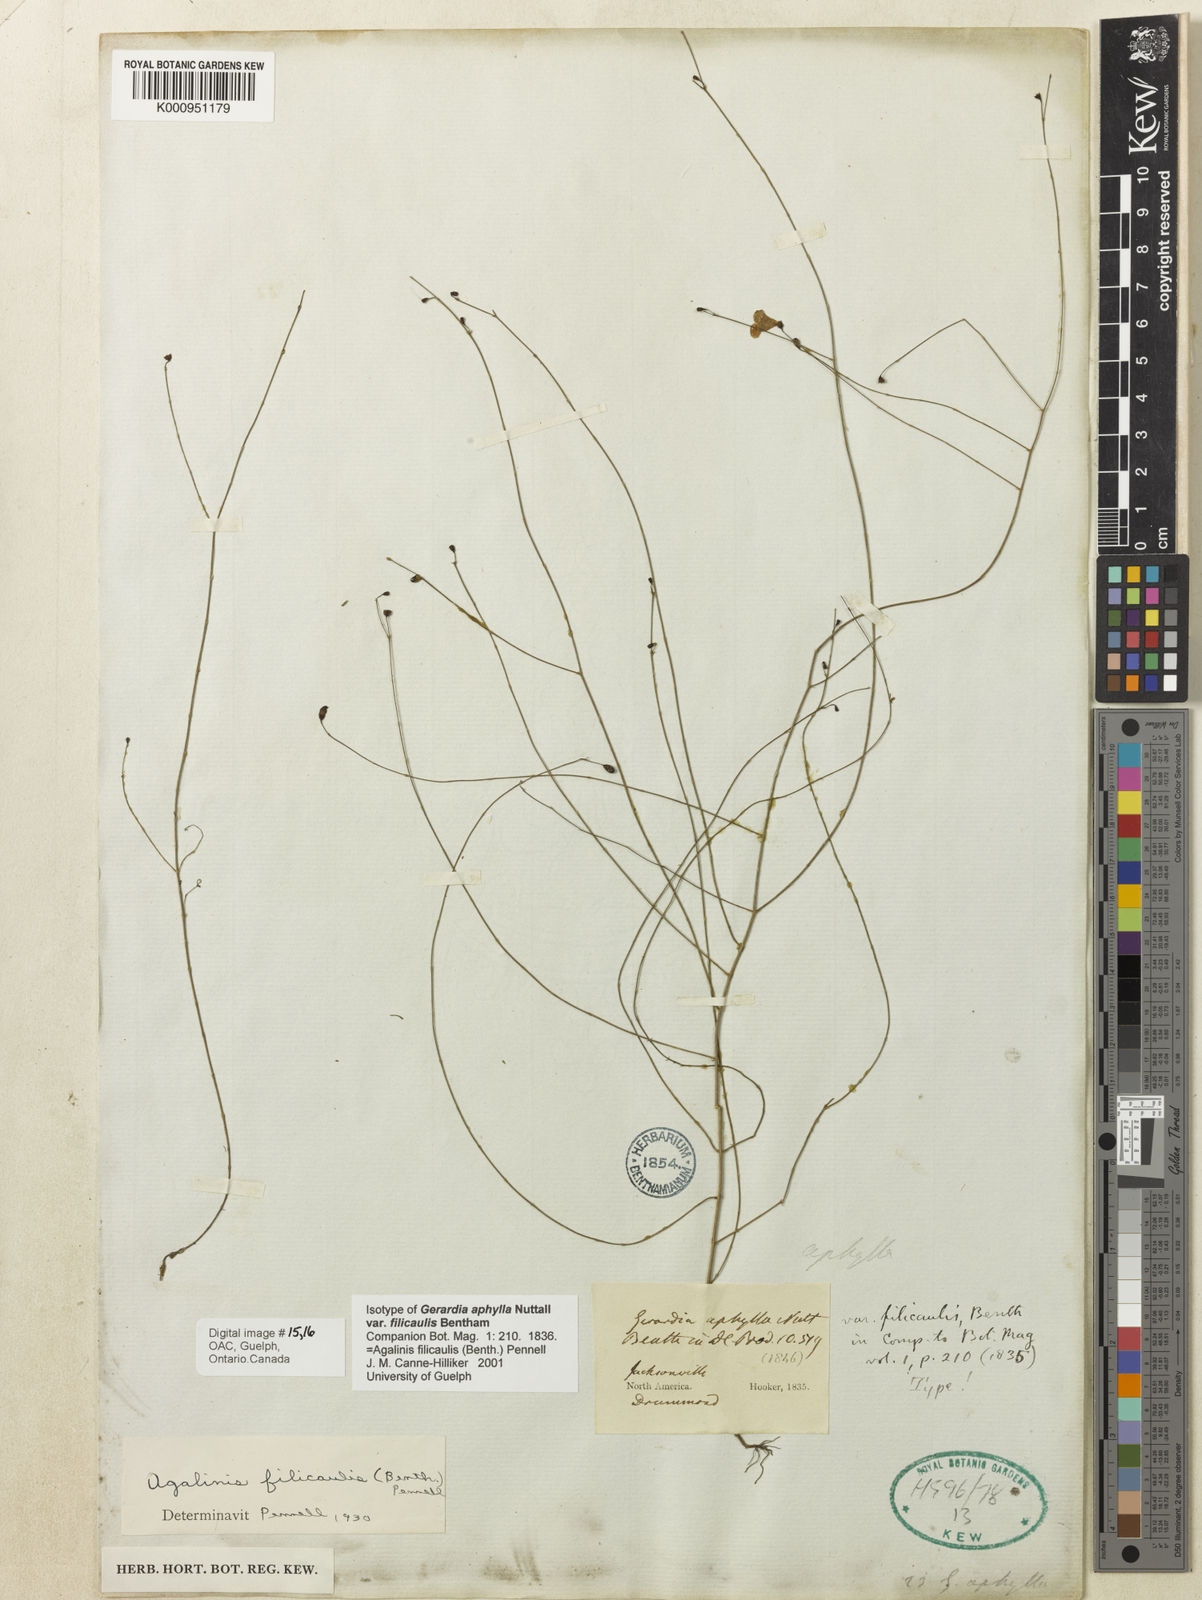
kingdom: Plantae
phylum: Tracheophyta
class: Magnoliopsida
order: Lamiales
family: Orobanchaceae
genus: Agalinis
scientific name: Agalinis filicaulis
